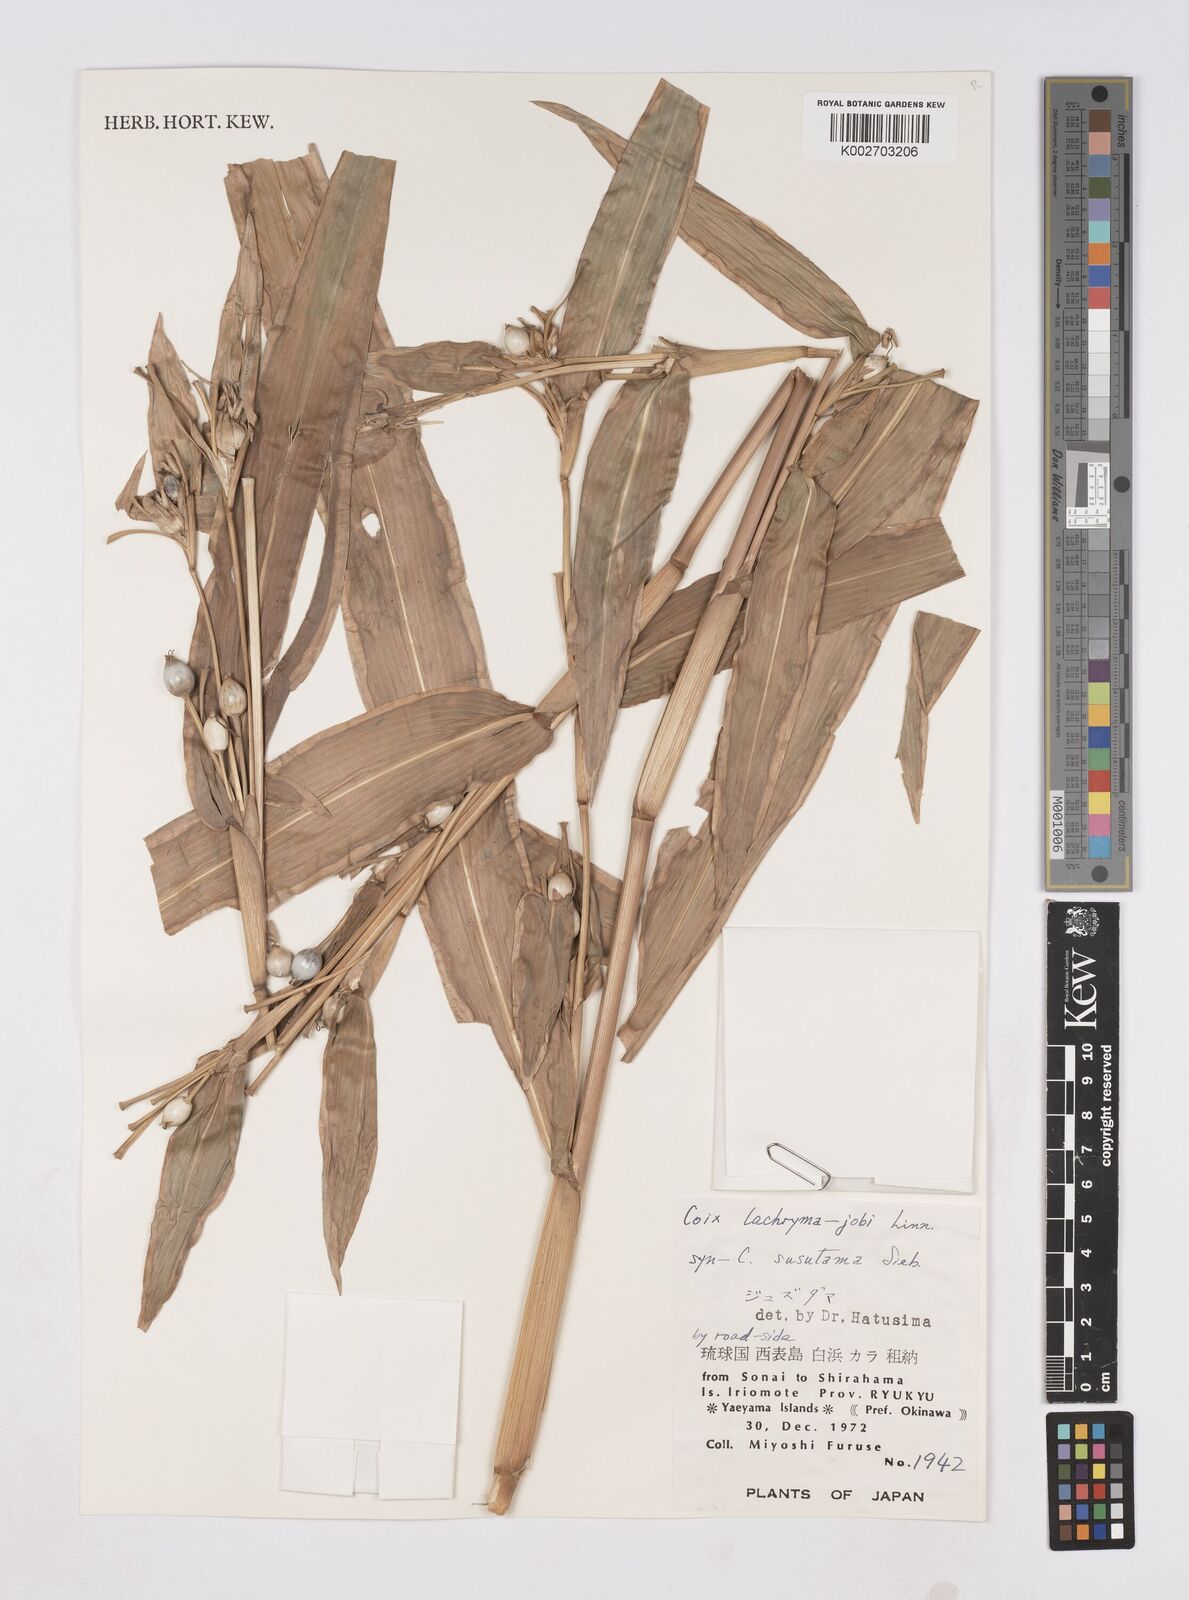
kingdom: Plantae
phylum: Tracheophyta
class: Liliopsida
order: Poales
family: Poaceae
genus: Coix
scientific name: Coix lacryma-jobi
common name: Job's tears
